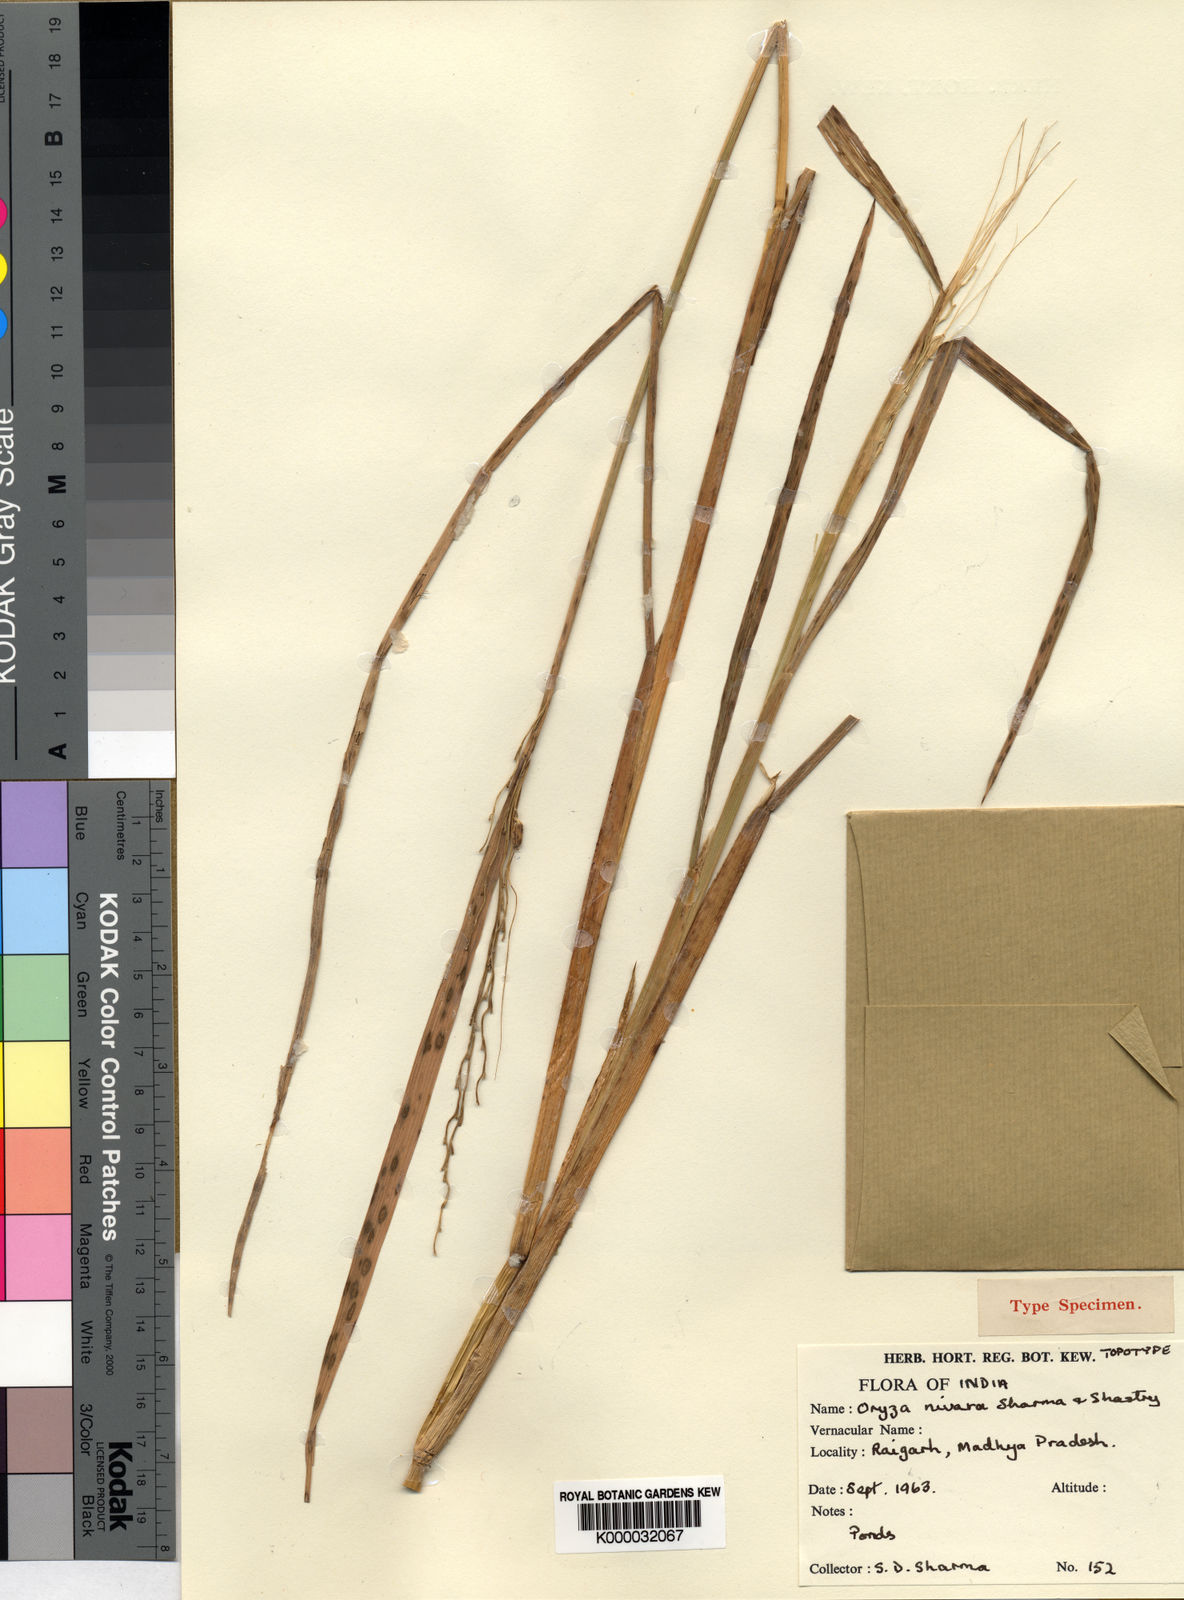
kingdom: Plantae
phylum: Tracheophyta
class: Liliopsida
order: Poales
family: Poaceae
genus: Oryza
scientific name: Oryza sativa
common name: Rice
